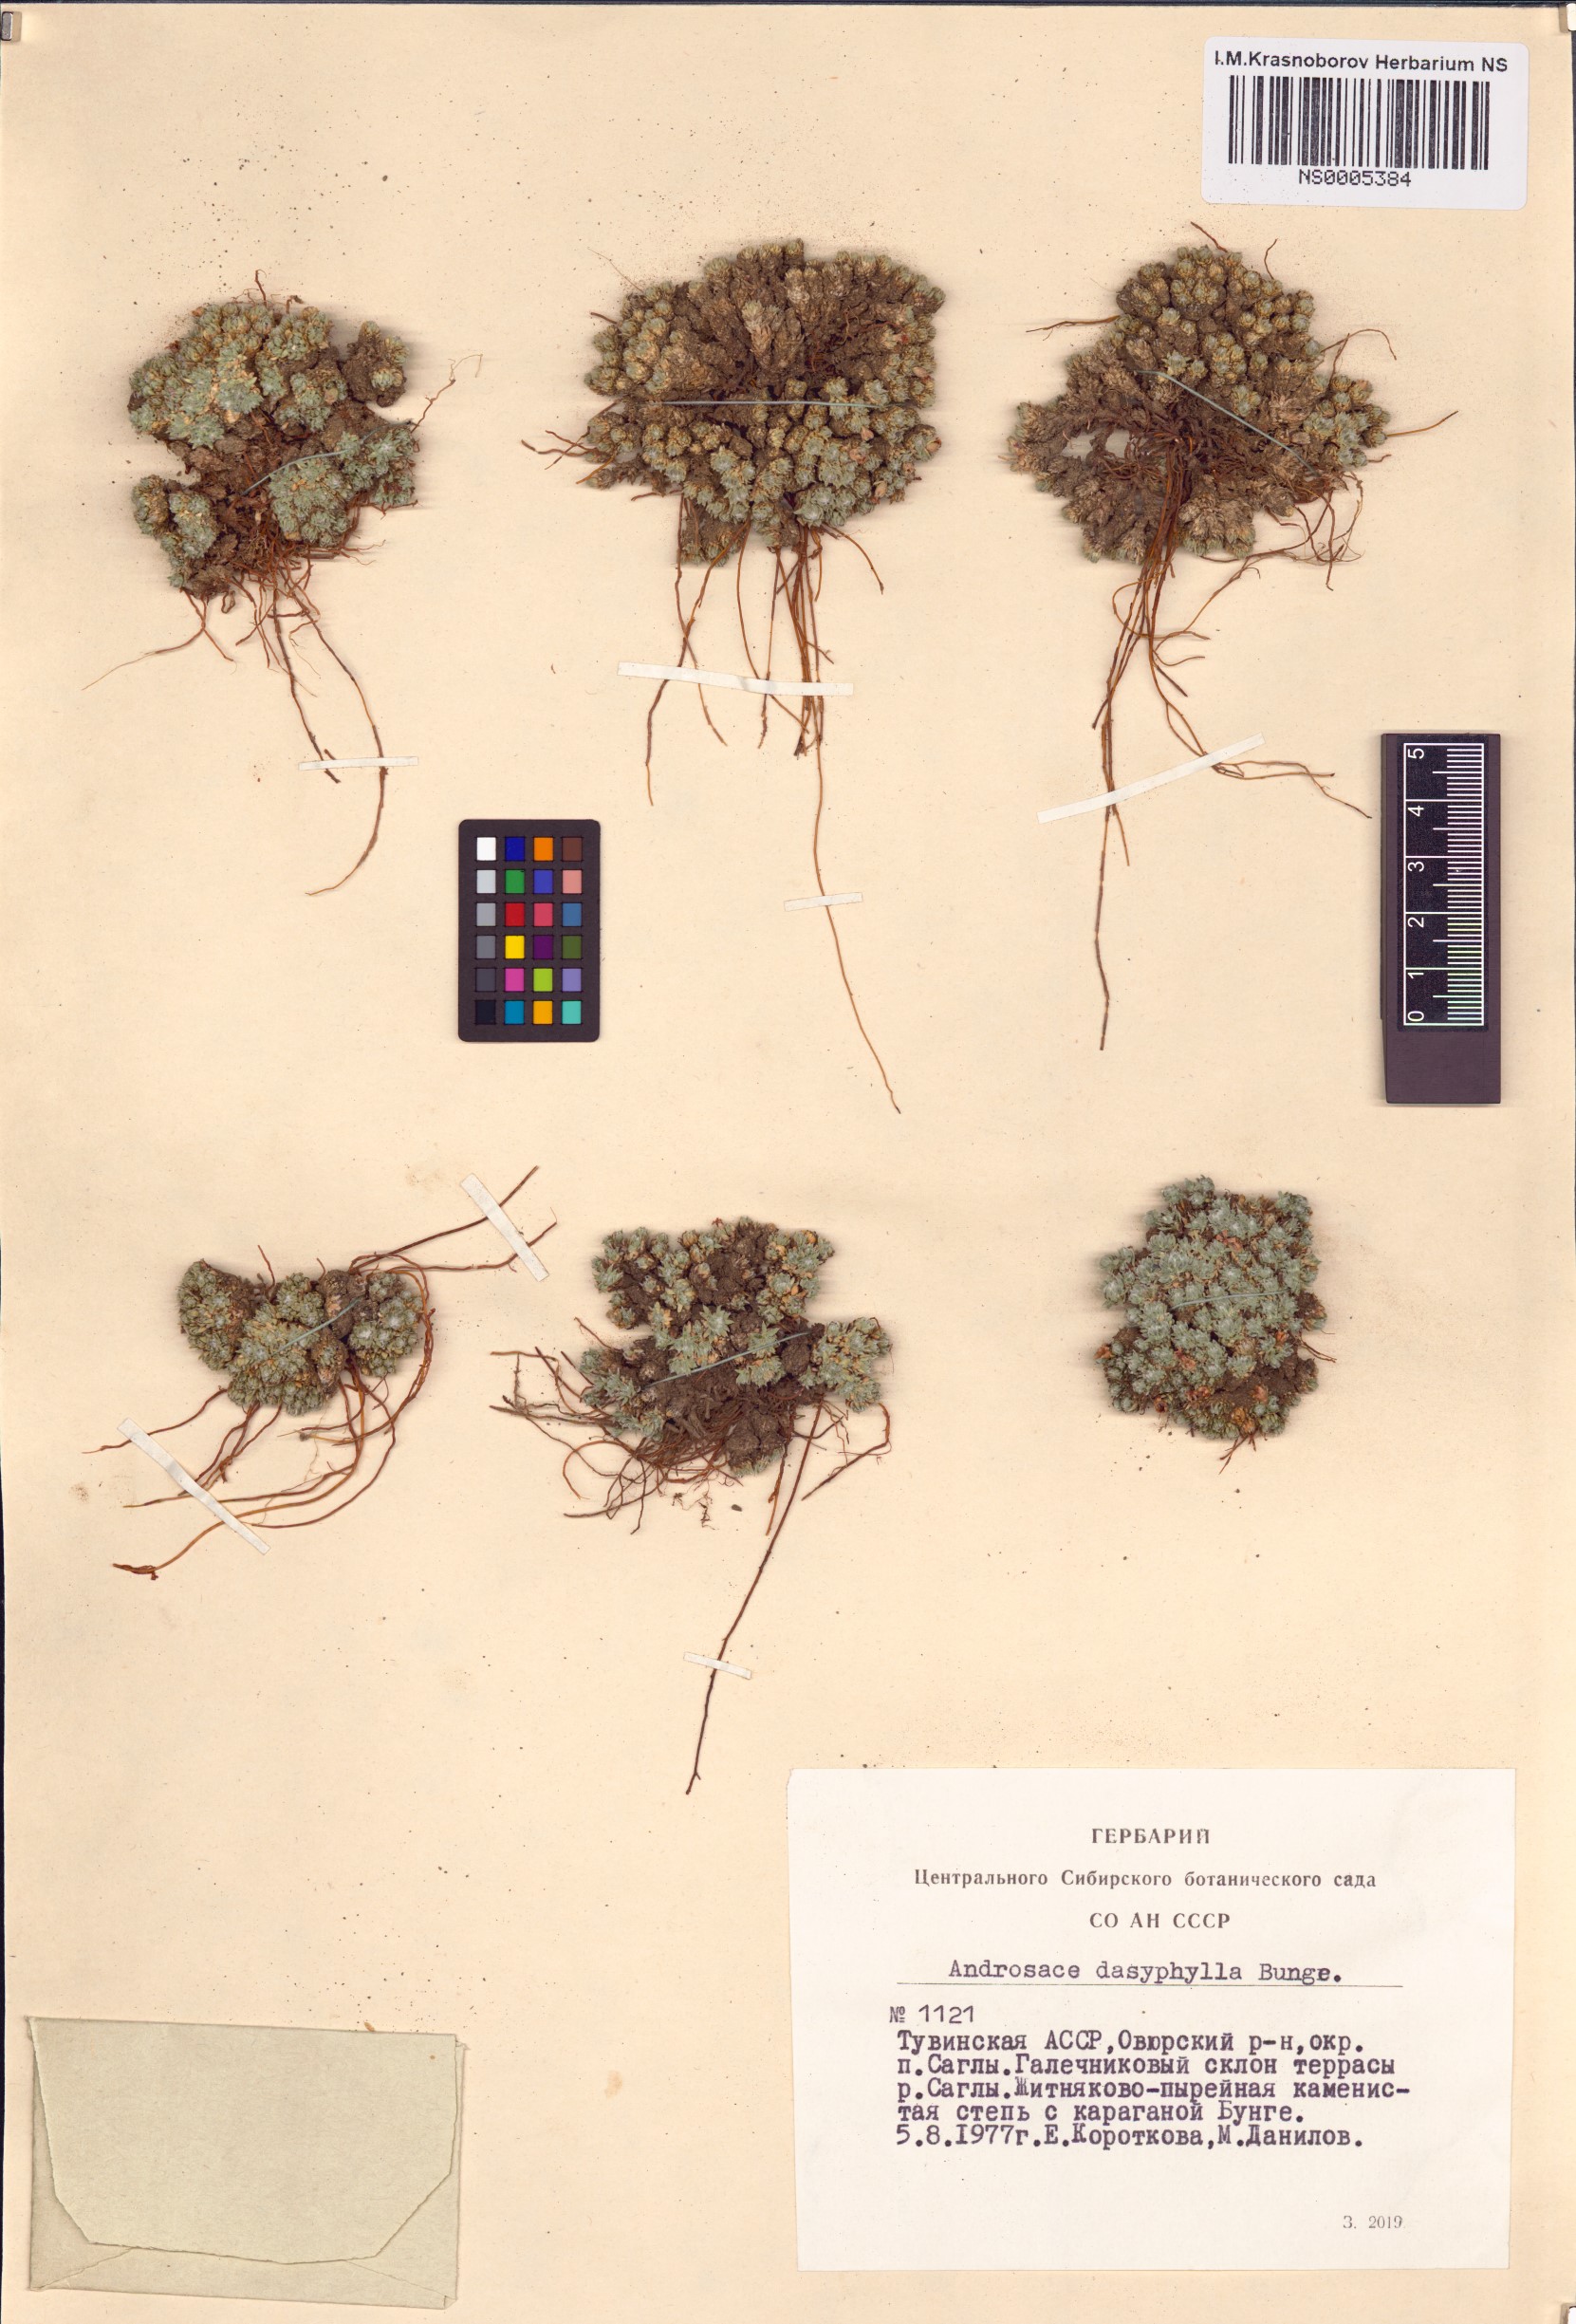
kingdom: Plantae
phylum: Tracheophyta
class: Magnoliopsida
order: Ericales
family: Primulaceae
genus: Androsace
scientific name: Androsace dasyphylla
